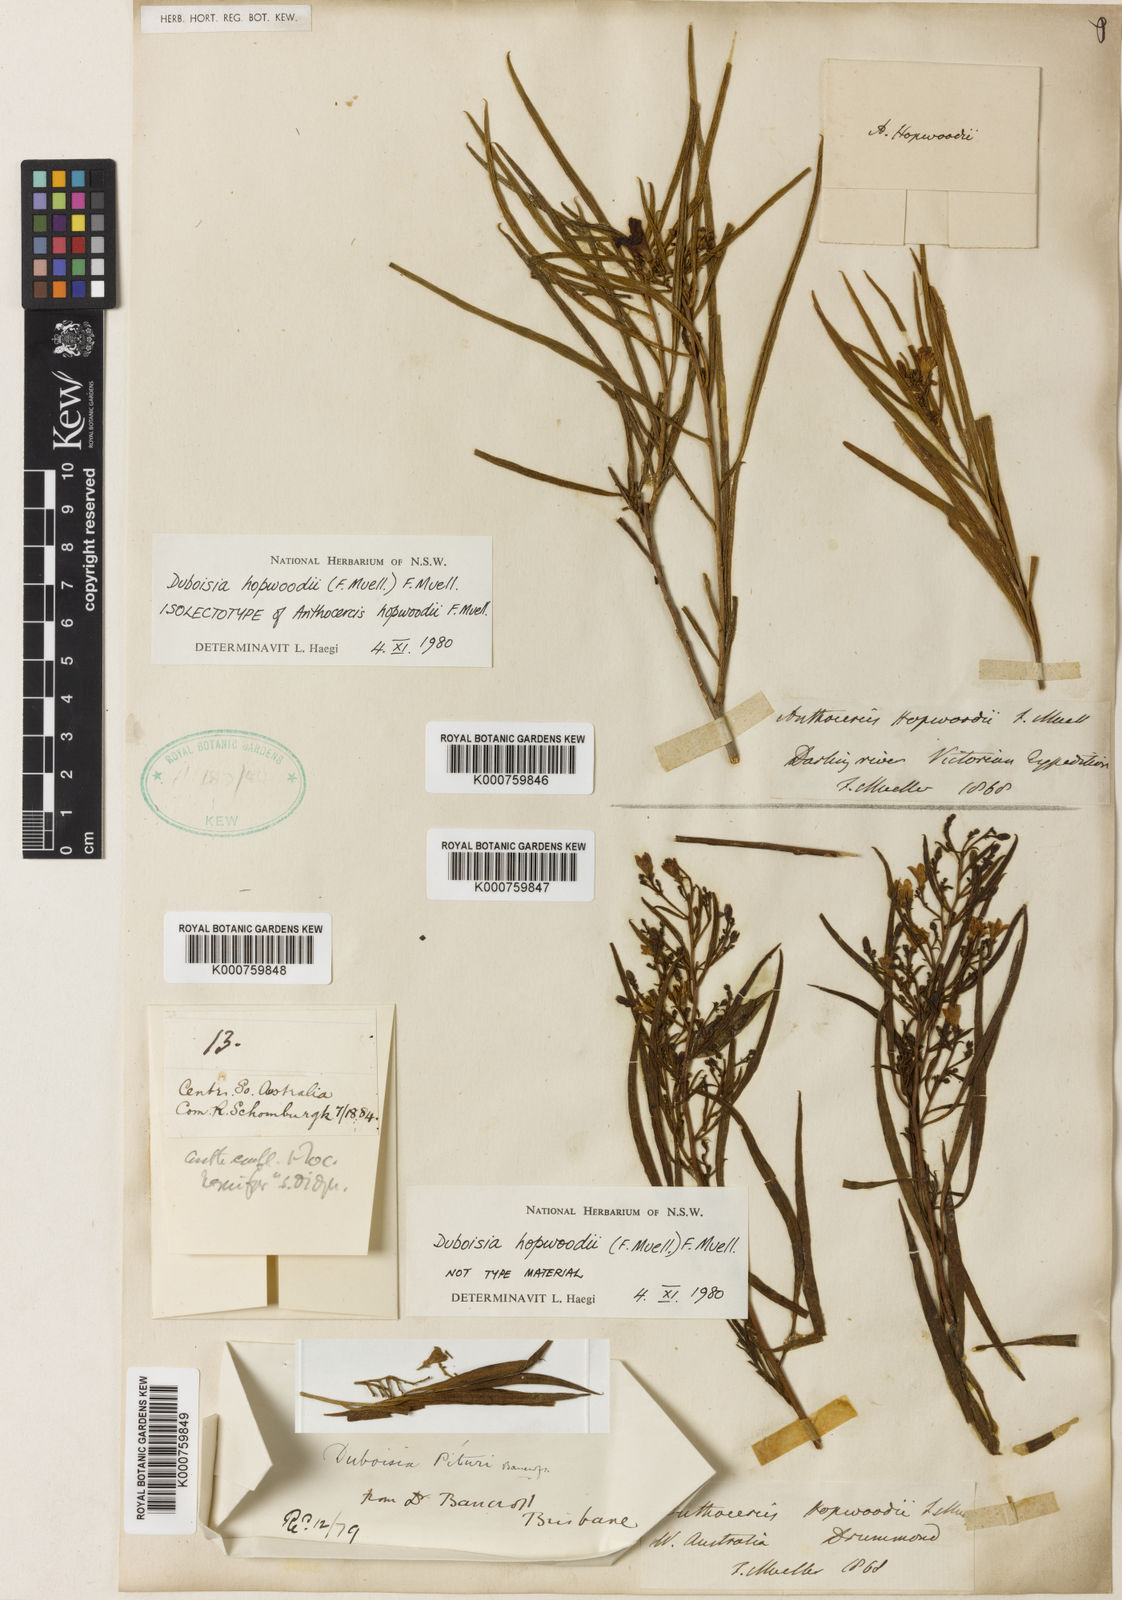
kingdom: Plantae
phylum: Tracheophyta
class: Magnoliopsida
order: Solanales
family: Solanaceae
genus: Duboisia
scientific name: Duboisia hopwoodii
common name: Pituri
